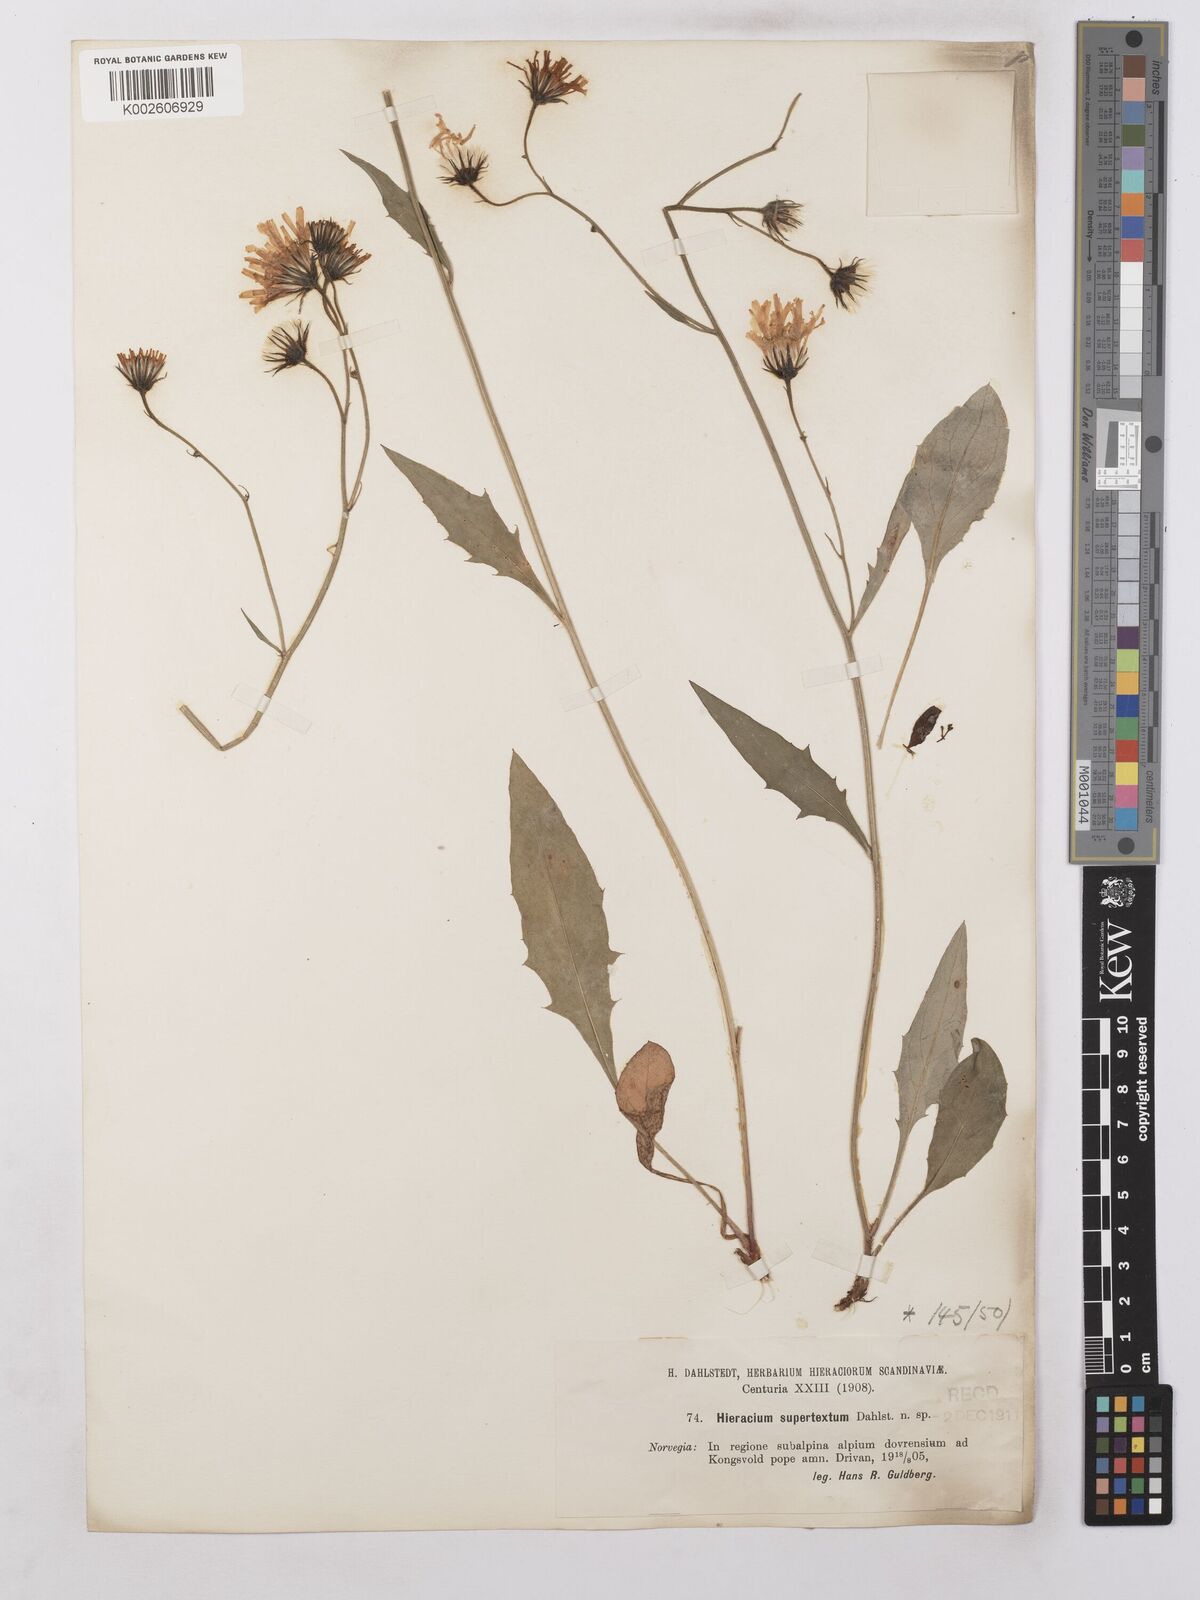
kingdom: Plantae
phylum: Tracheophyta
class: Magnoliopsida
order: Asterales
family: Asteraceae
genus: Hieracium
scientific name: Hieracium levicaule
